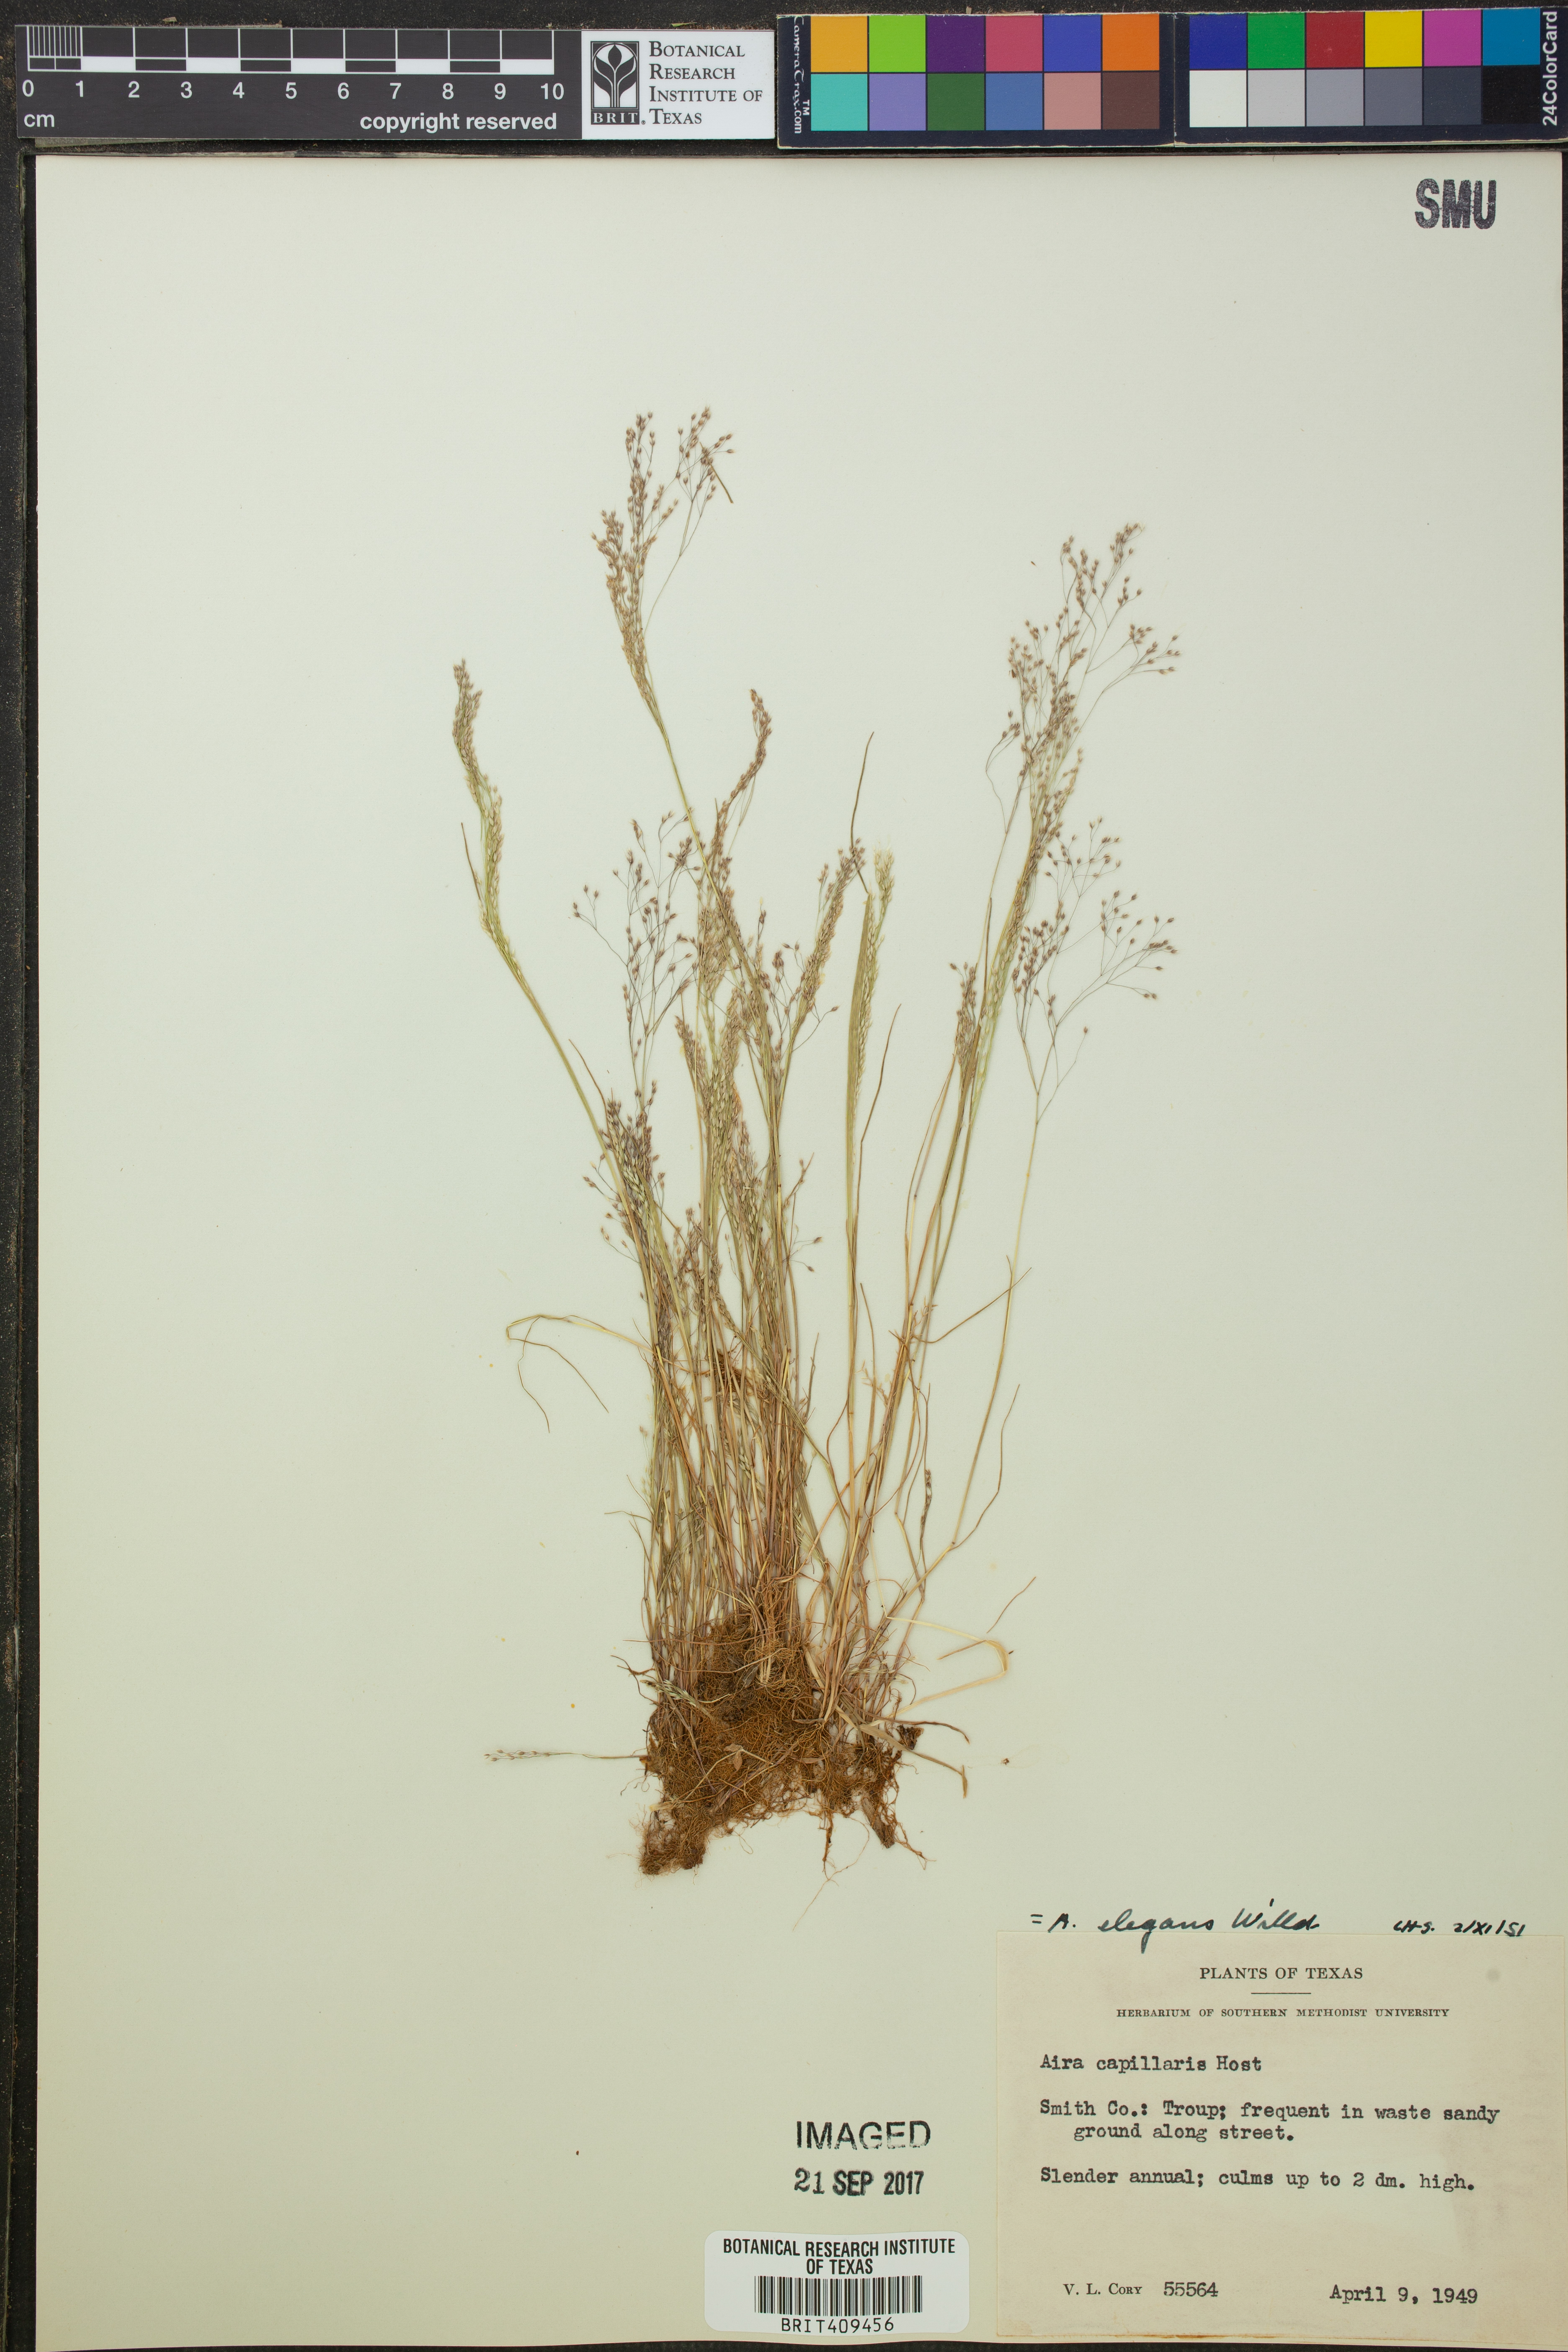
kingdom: Plantae
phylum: Tracheophyta
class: Liliopsida
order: Poales
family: Poaceae
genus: Aira
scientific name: Aira capillaris
